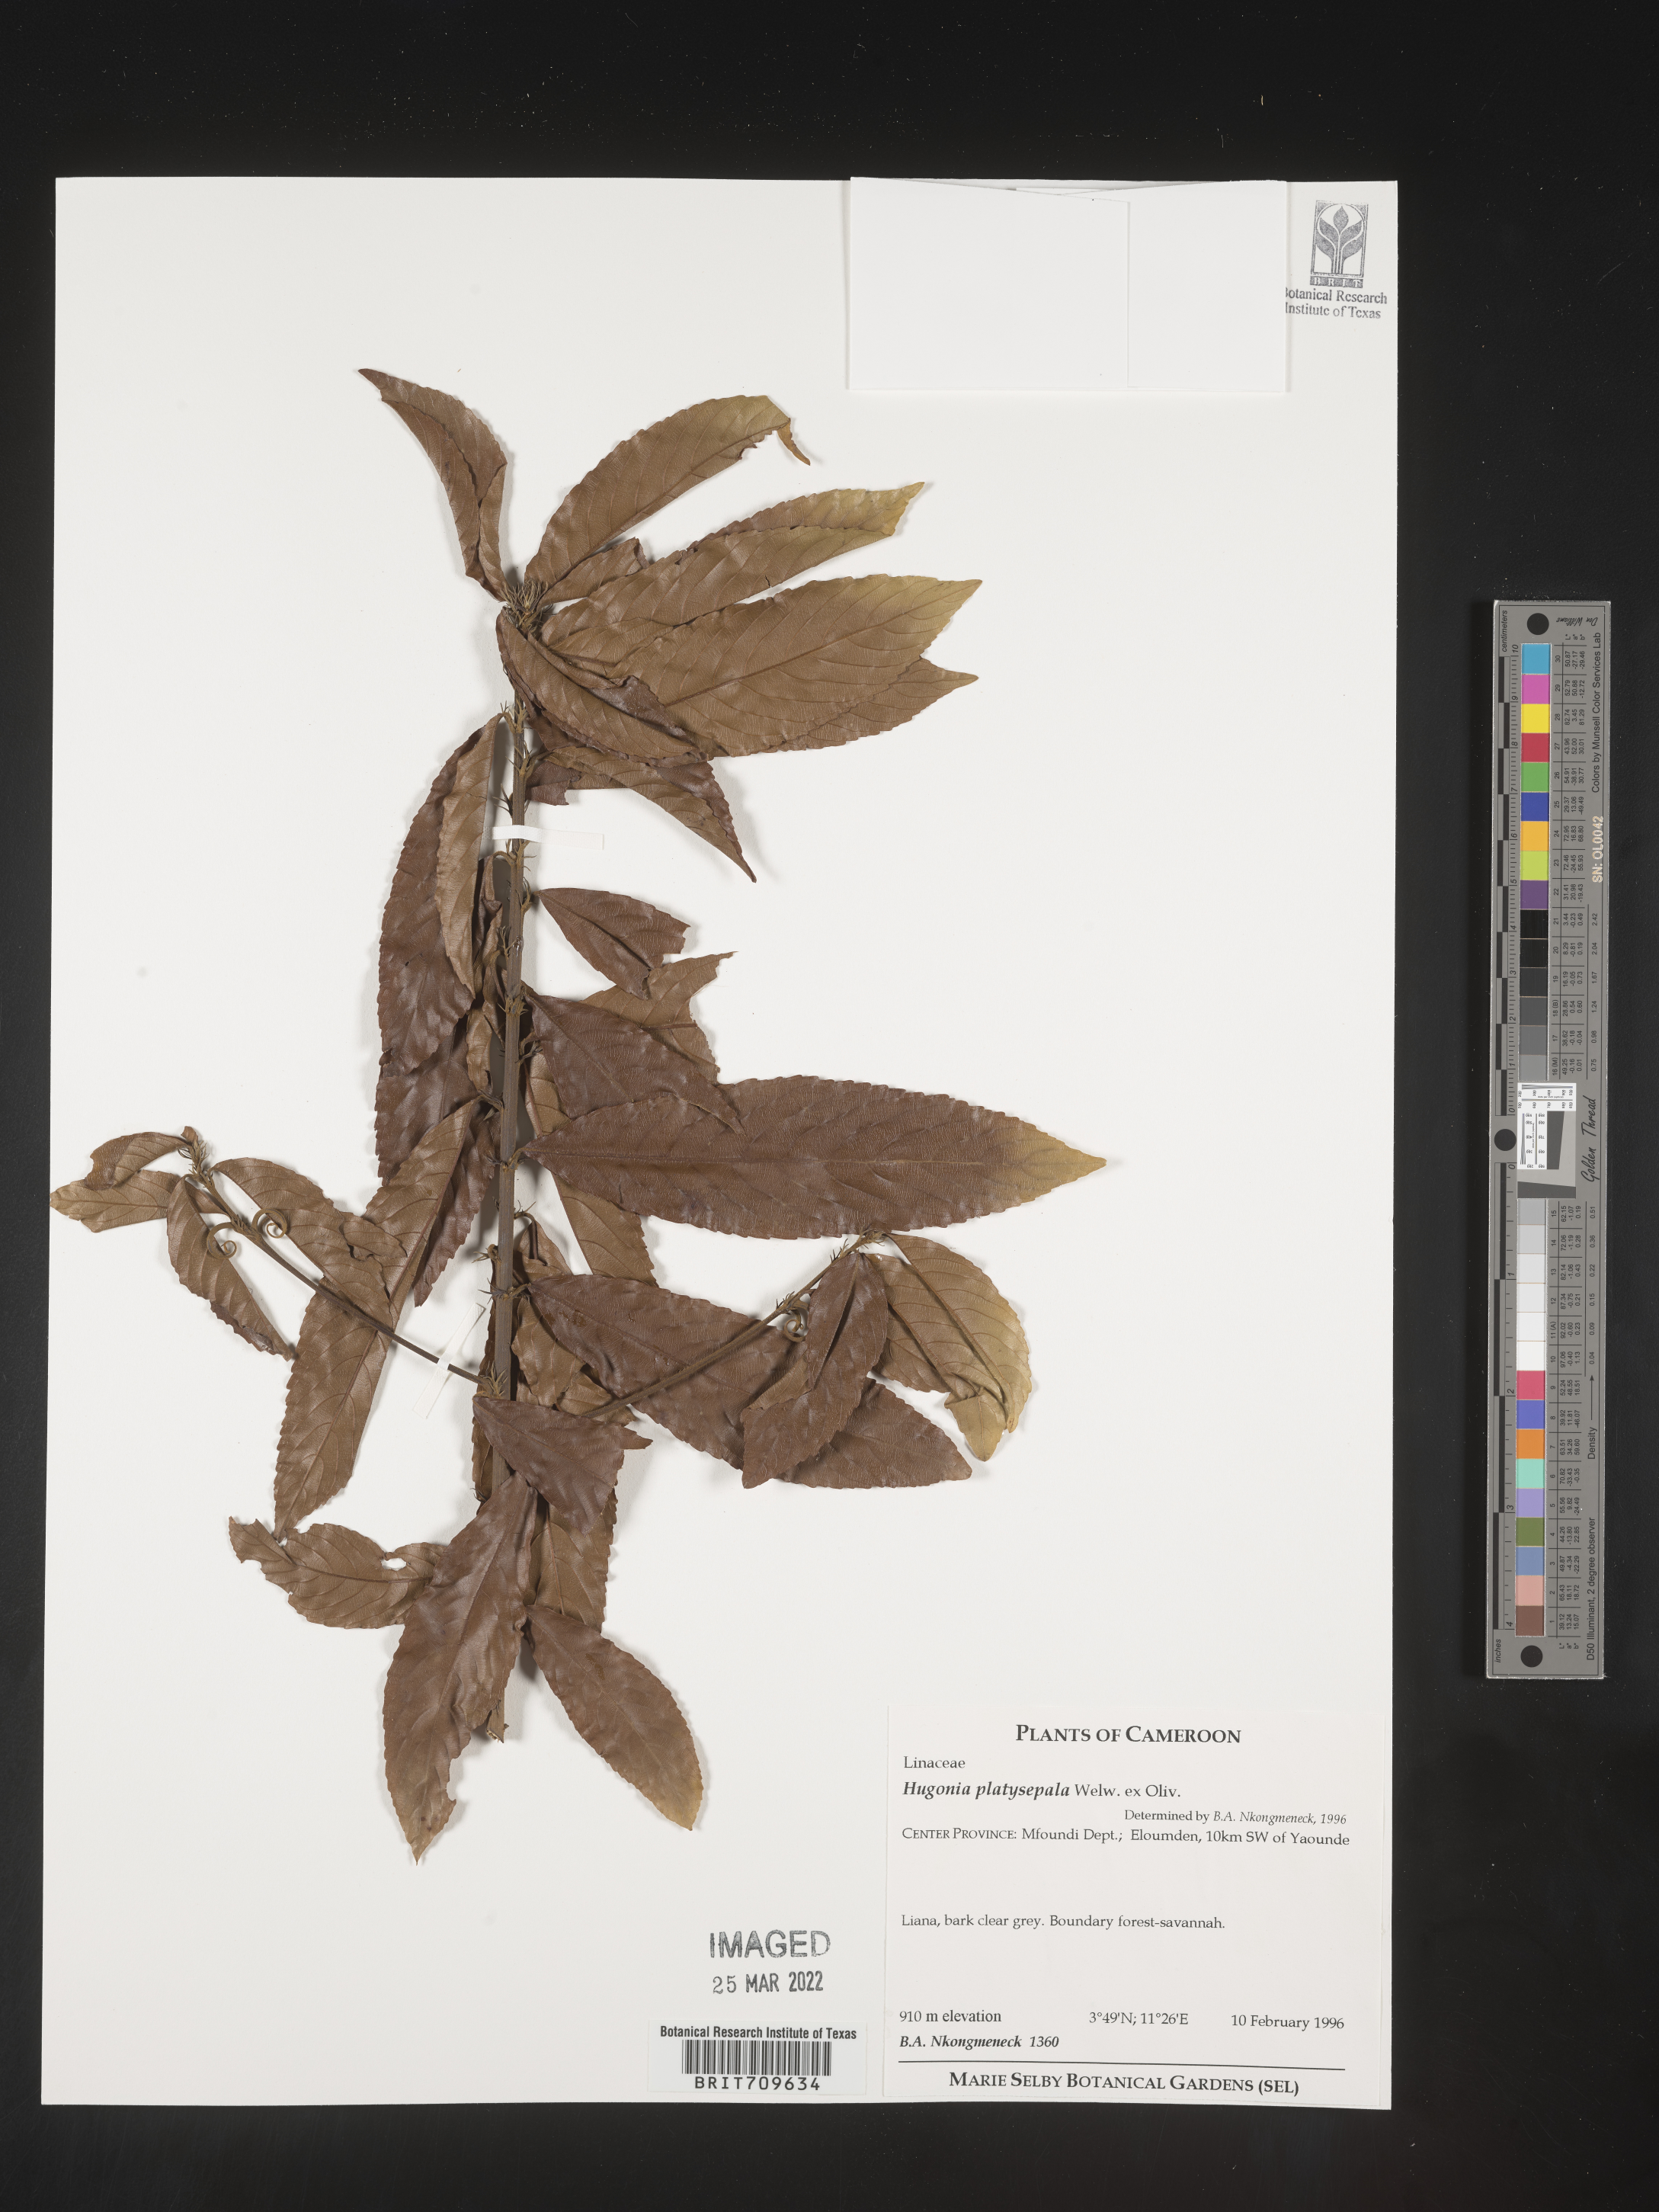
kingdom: Plantae
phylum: Tracheophyta
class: Magnoliopsida
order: Malpighiales
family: Linaceae
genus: Hugonia
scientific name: Hugonia
